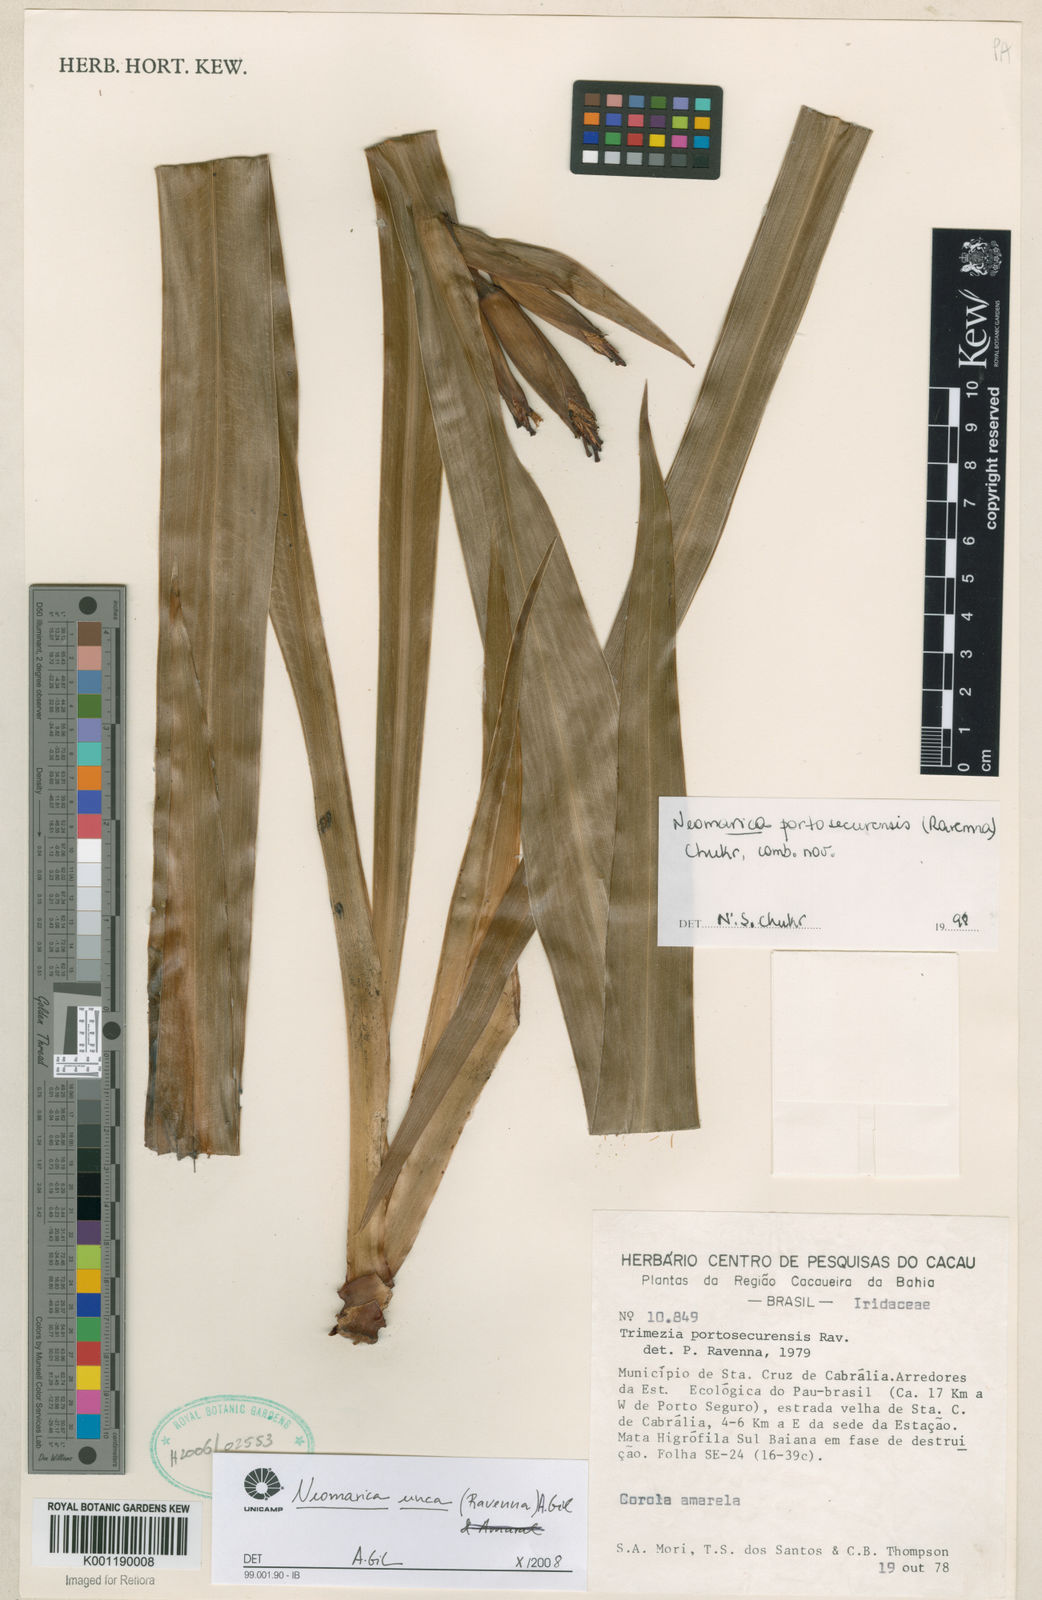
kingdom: Plantae
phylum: Tracheophyta
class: Liliopsida
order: Asparagales
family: Iridaceae
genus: Trimezia
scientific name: Trimezia portosecurensis
